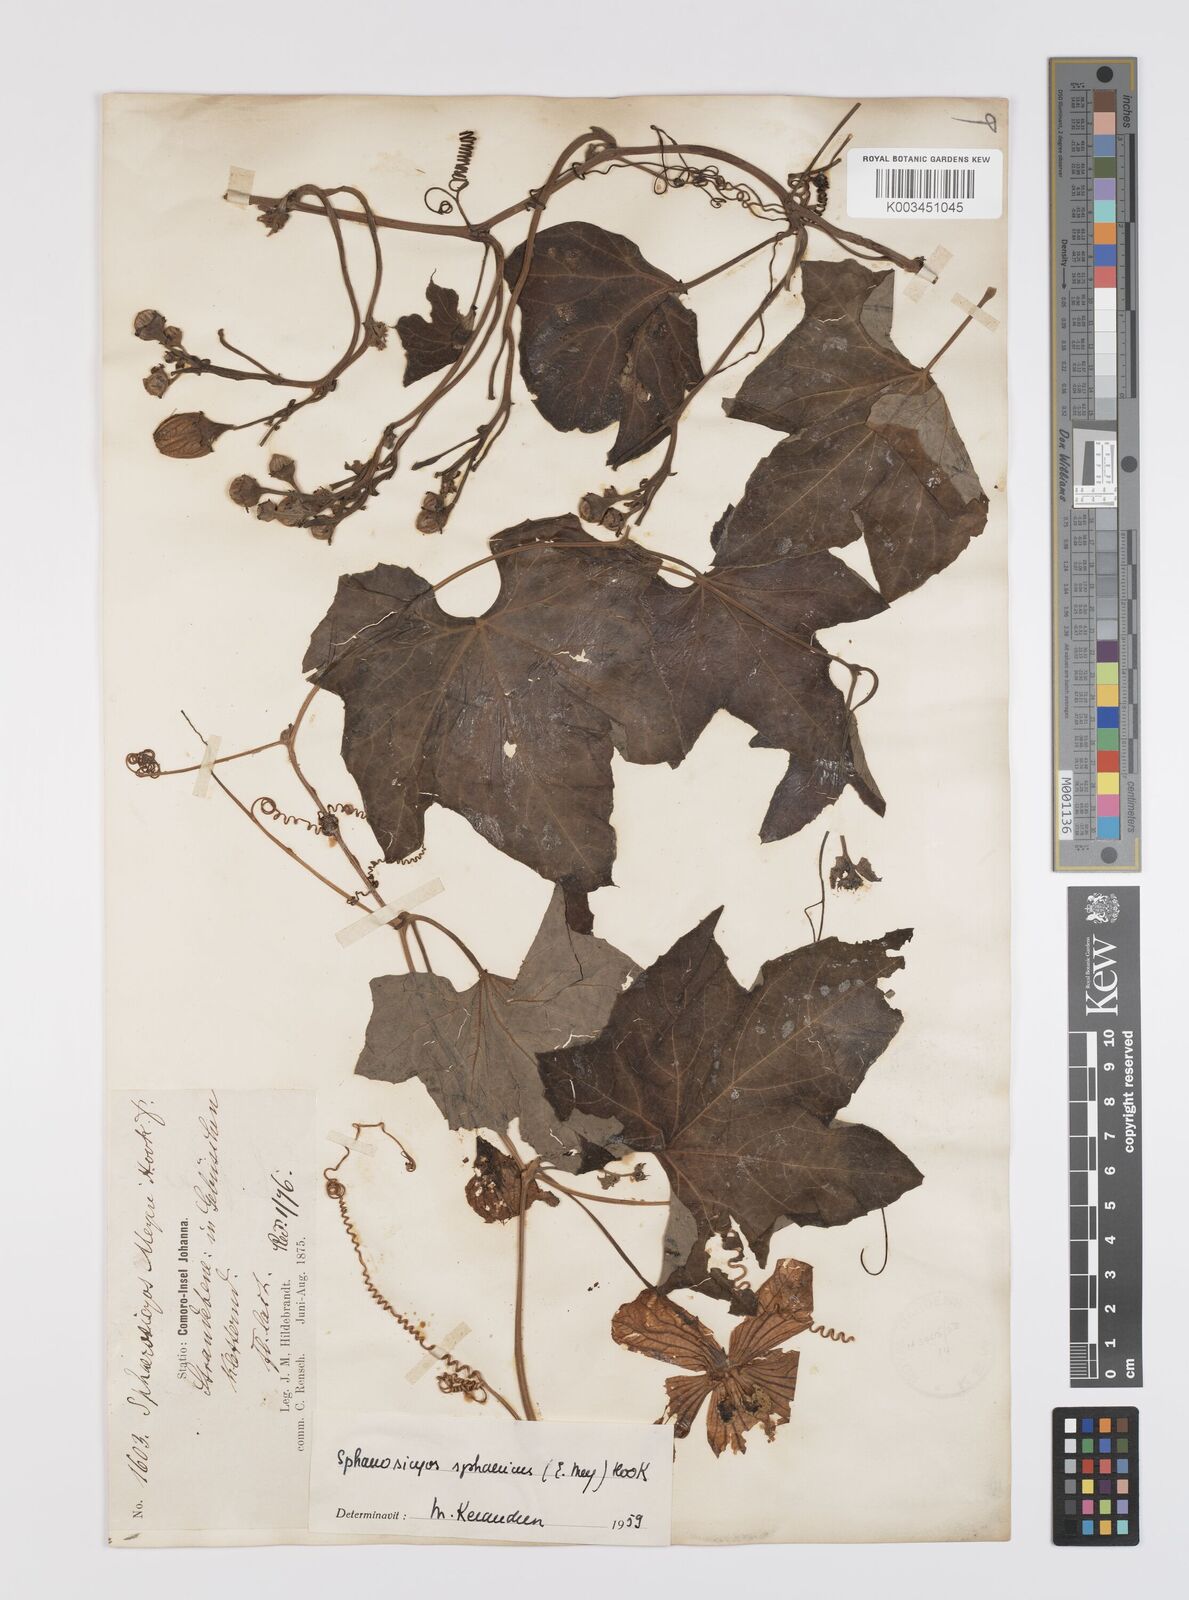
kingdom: Plantae
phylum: Tracheophyta
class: Magnoliopsida
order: Cucurbitales
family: Cucurbitaceae
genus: Lagenaria
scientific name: Lagenaria sphaerica
